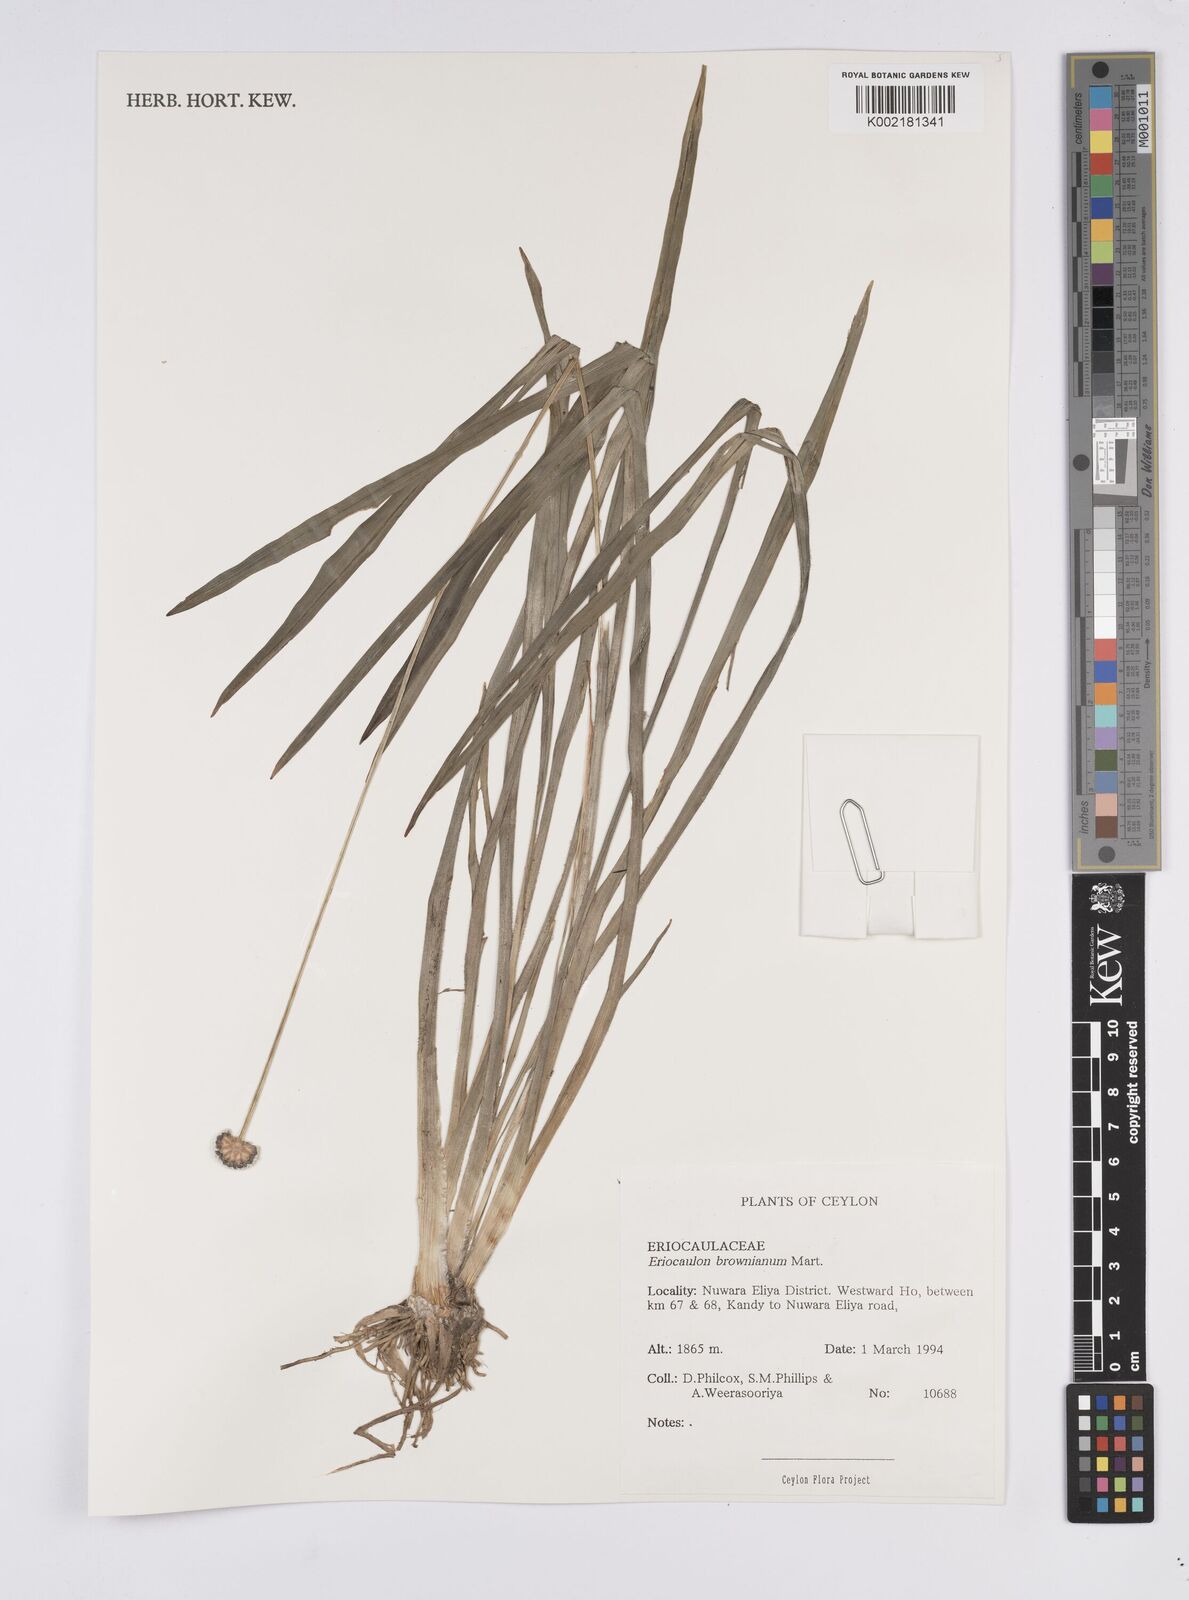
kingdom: Plantae
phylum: Tracheophyta
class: Liliopsida
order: Poales
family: Eriocaulaceae
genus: Eriocaulon
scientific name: Eriocaulon brownianum
